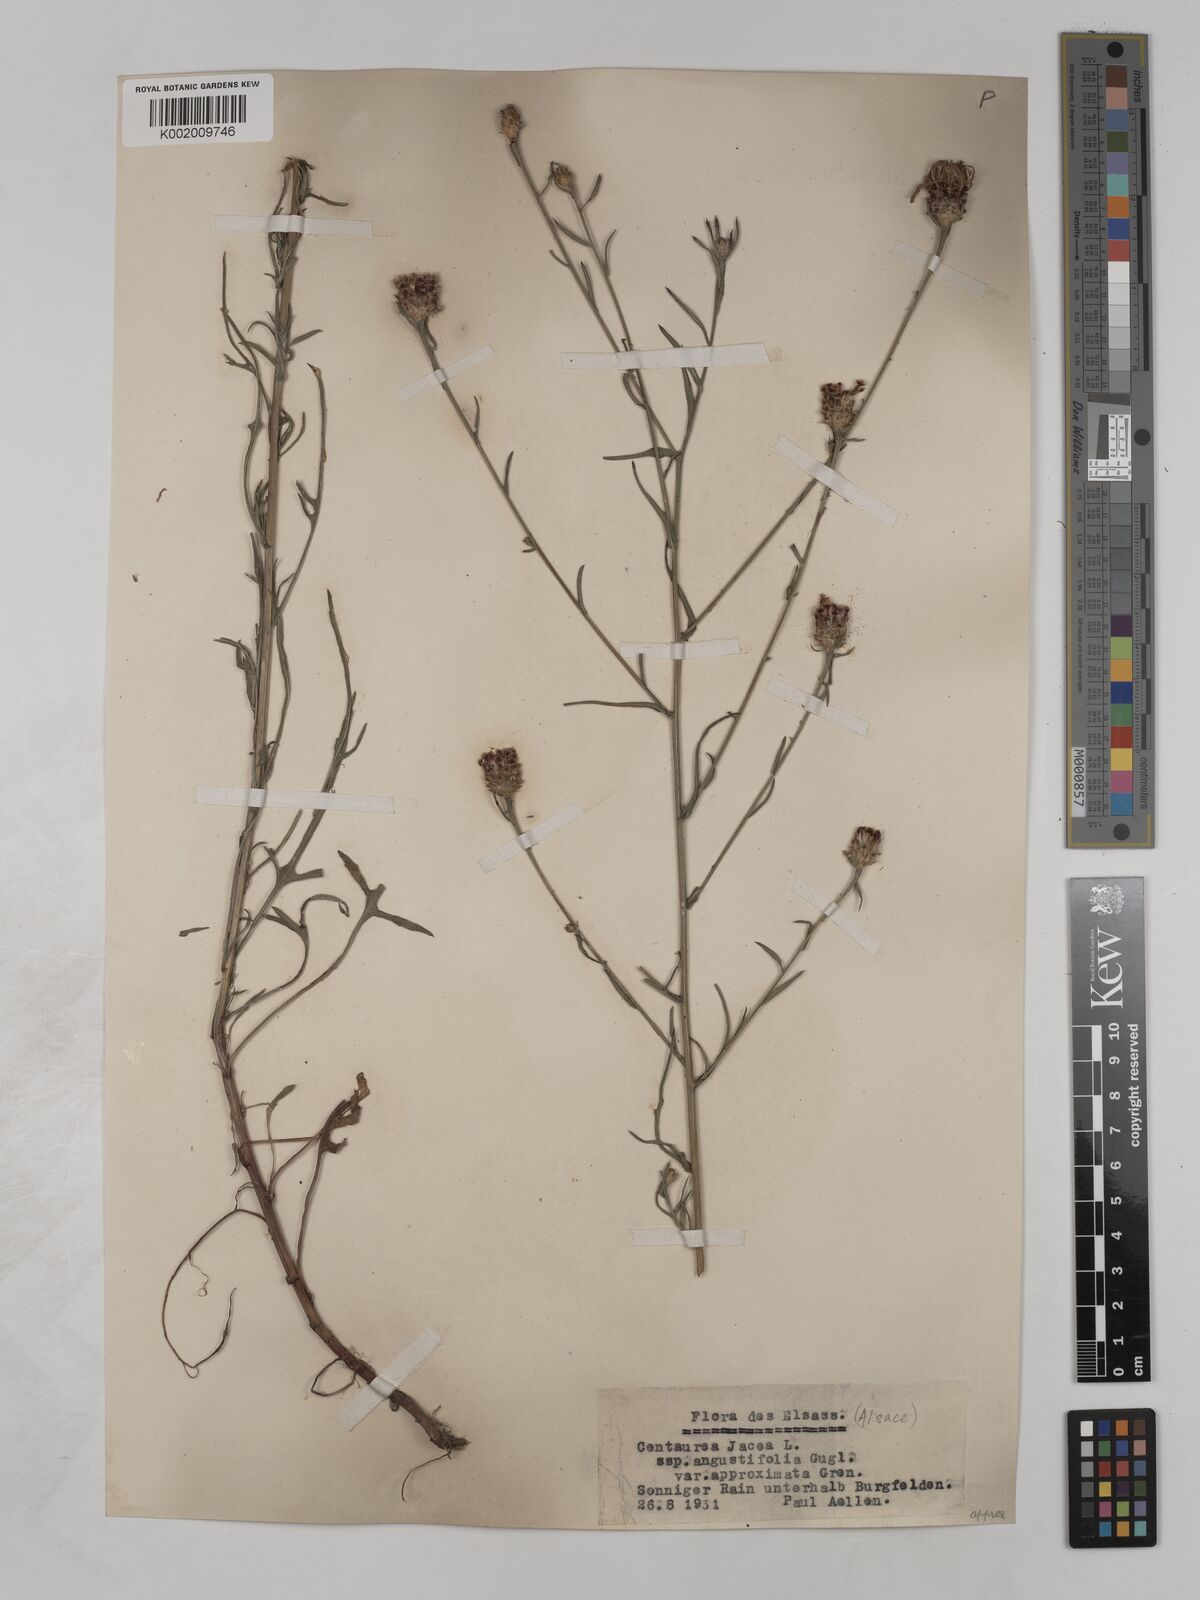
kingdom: Plantae
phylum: Tracheophyta
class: Magnoliopsida
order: Asterales
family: Asteraceae
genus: Centaurea
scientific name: Centaurea timbalii
